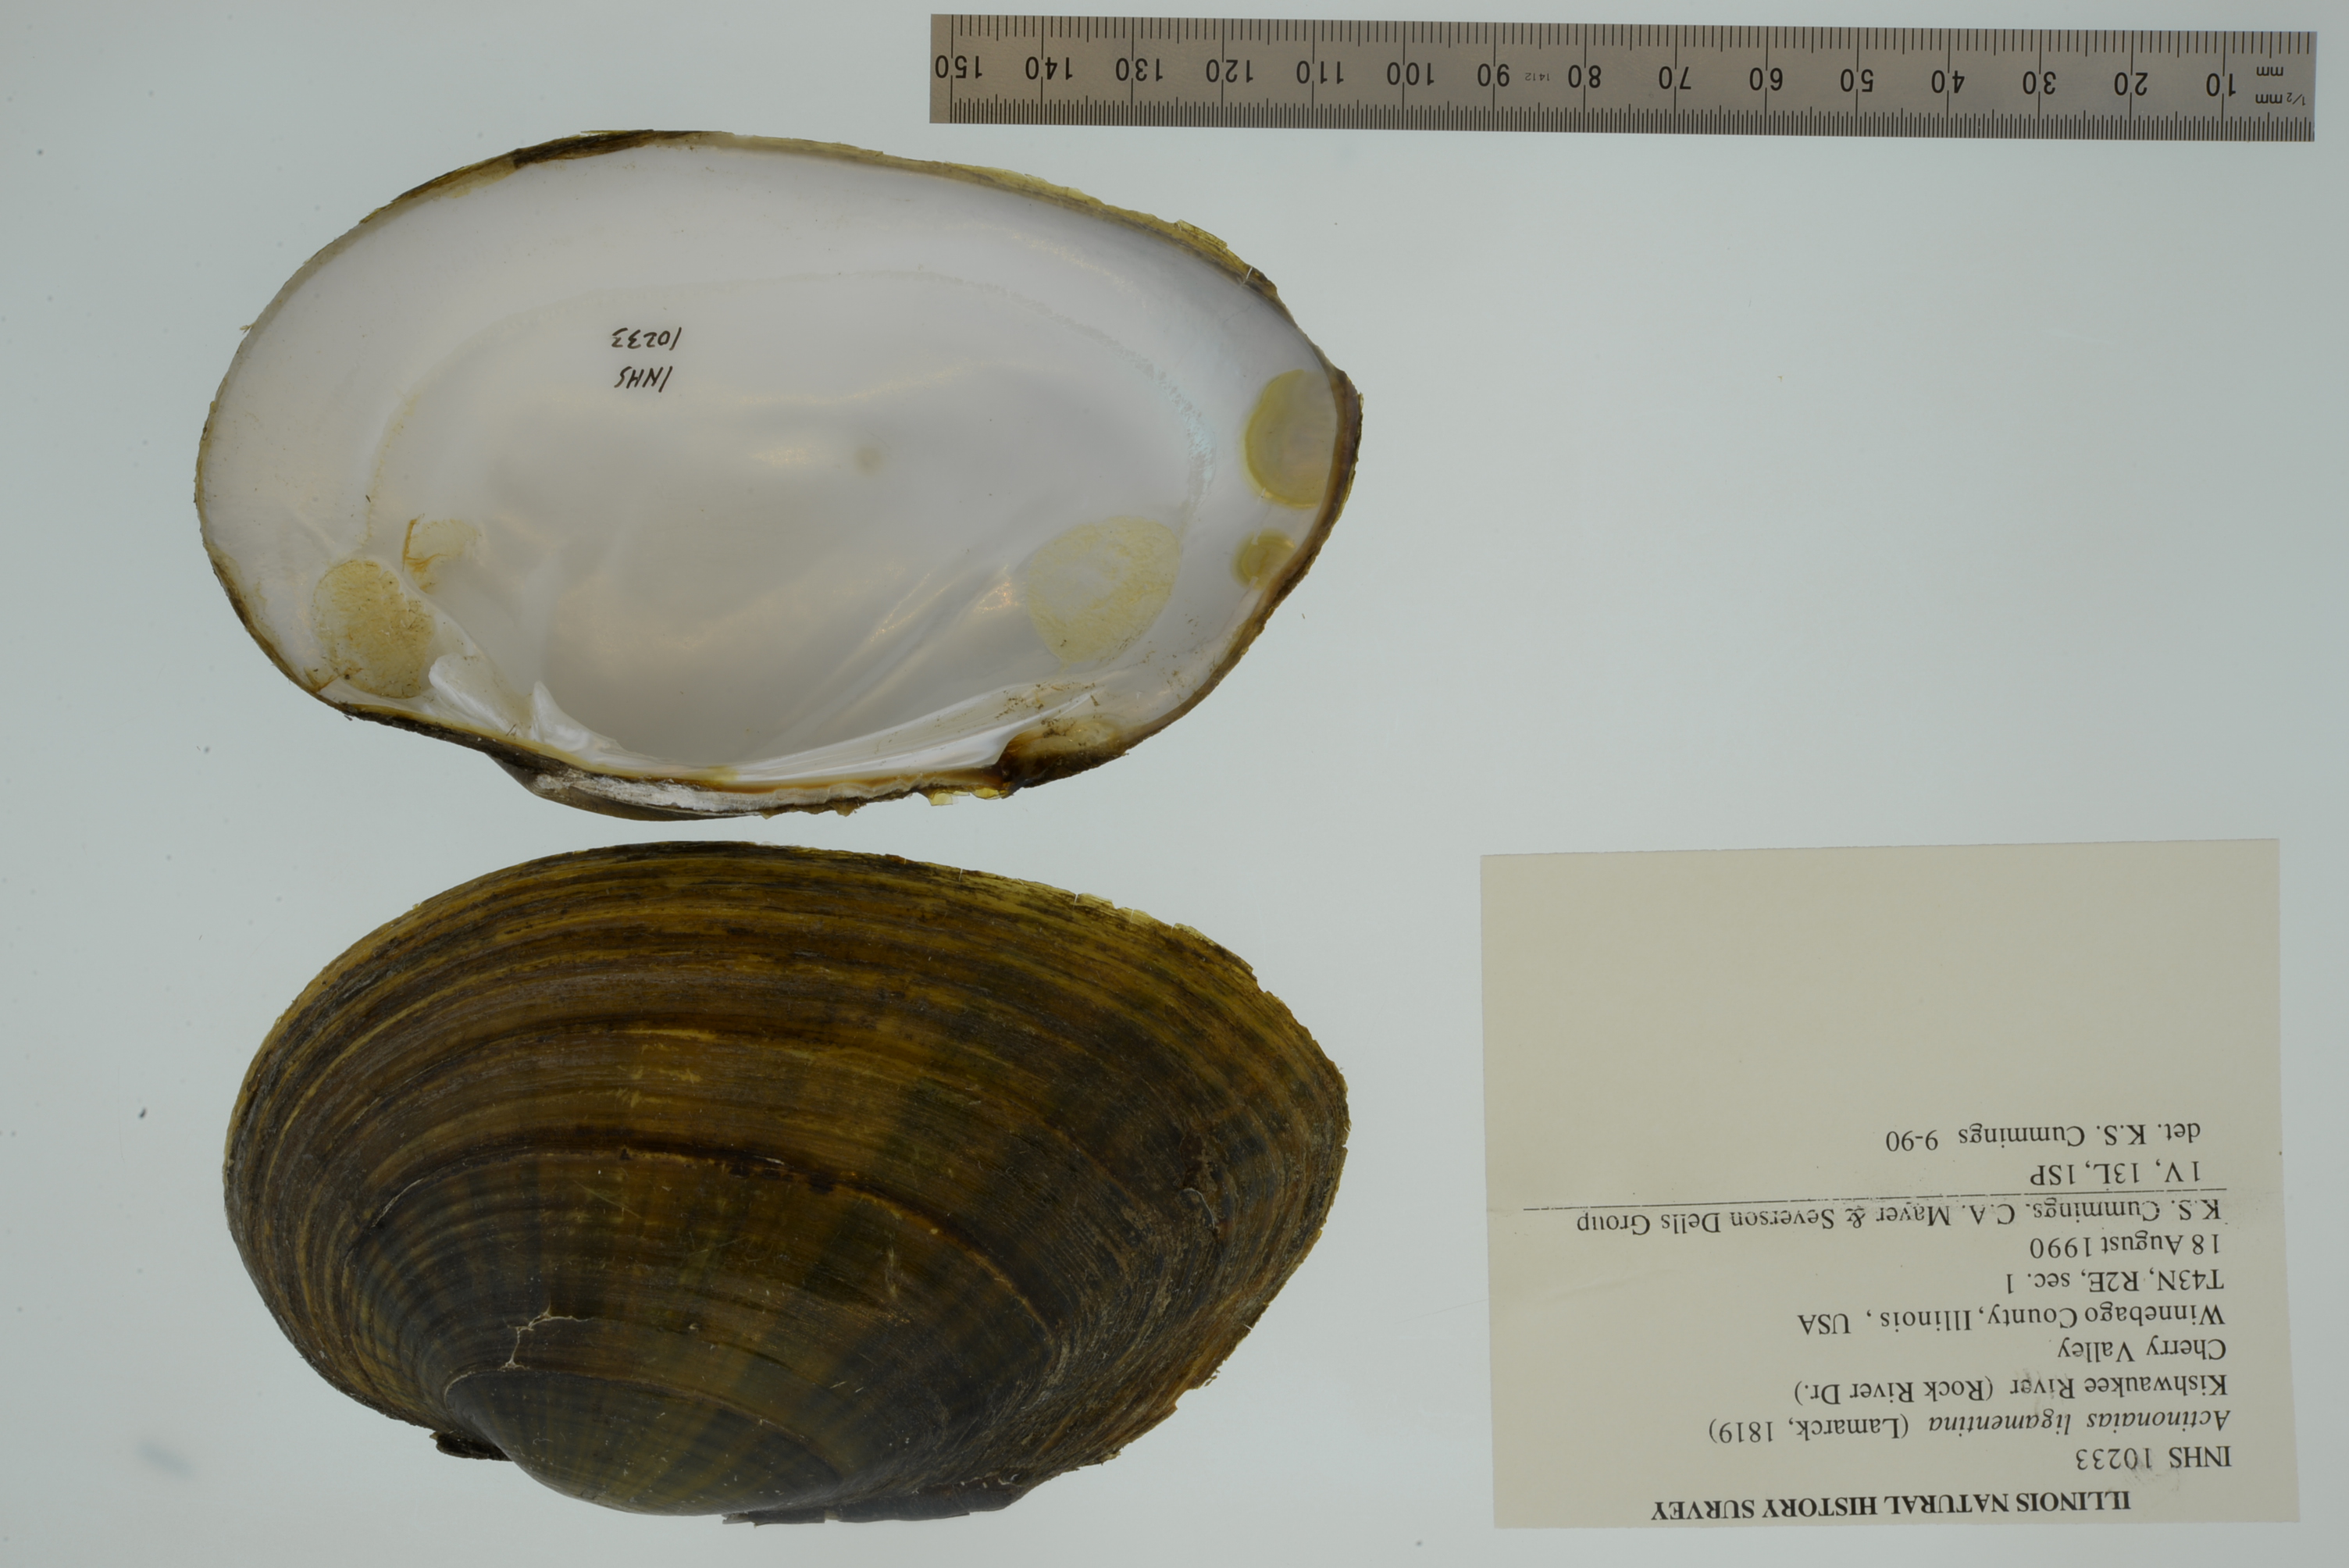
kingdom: Animalia
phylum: Mollusca
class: Bivalvia
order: Unionida
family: Unionidae
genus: Ortmanniana
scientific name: Ortmanniana ligamentina
